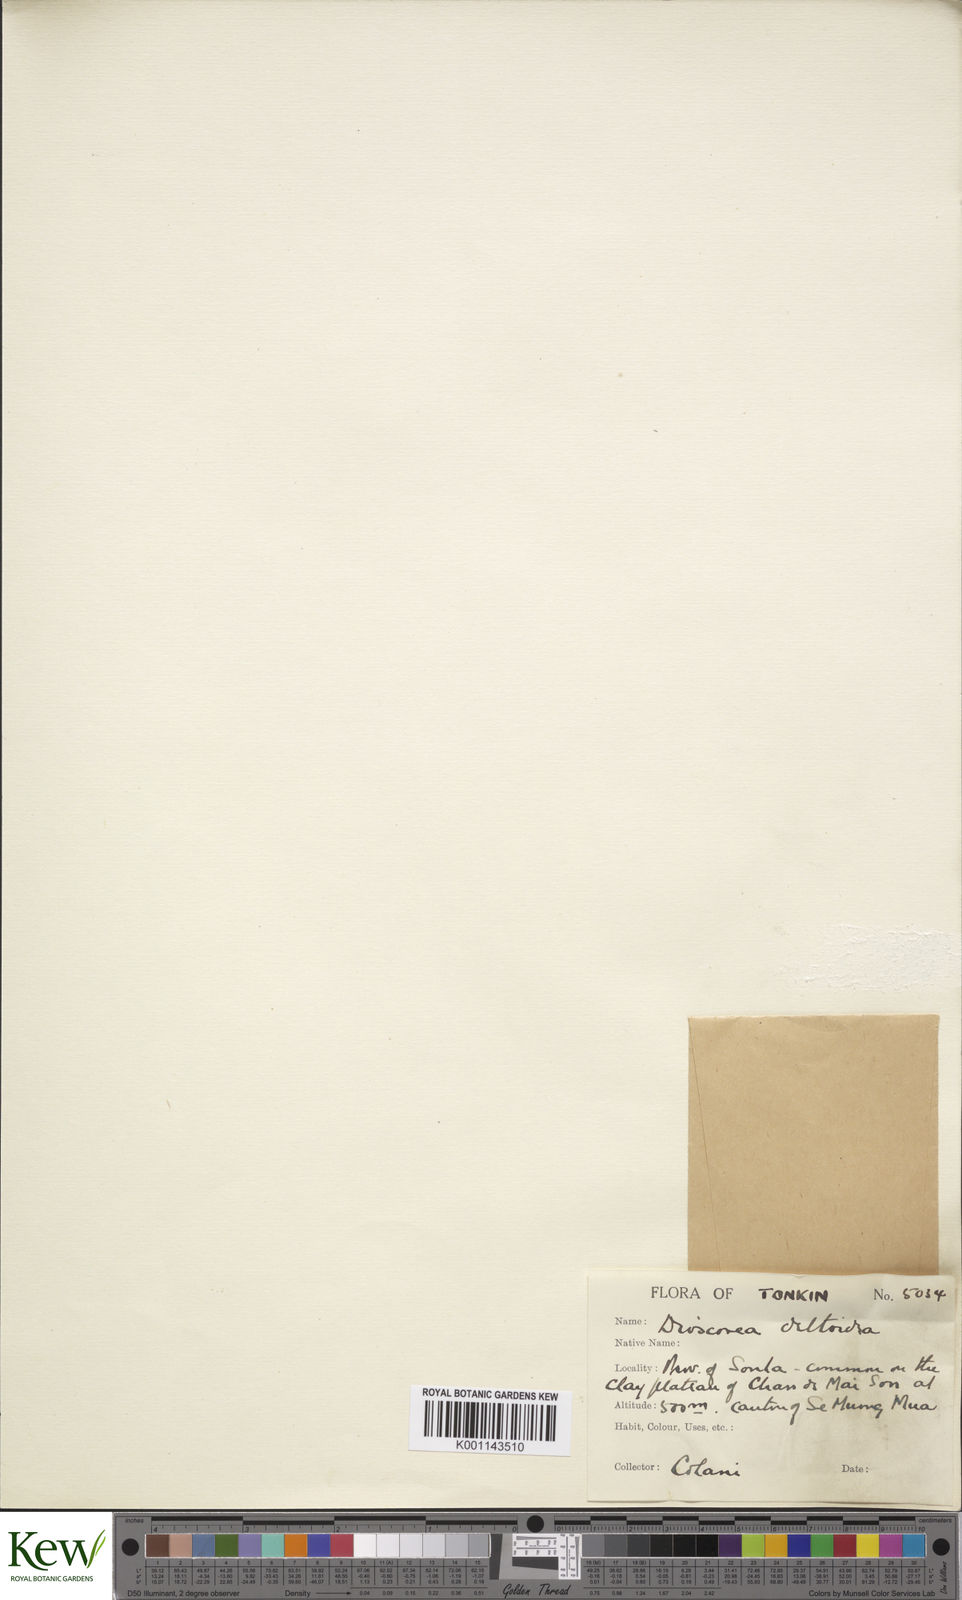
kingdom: Plantae
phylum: Tracheophyta
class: Liliopsida
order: Dioscoreales
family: Dioscoreaceae
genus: Dioscorea
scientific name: Dioscorea deltoidea
